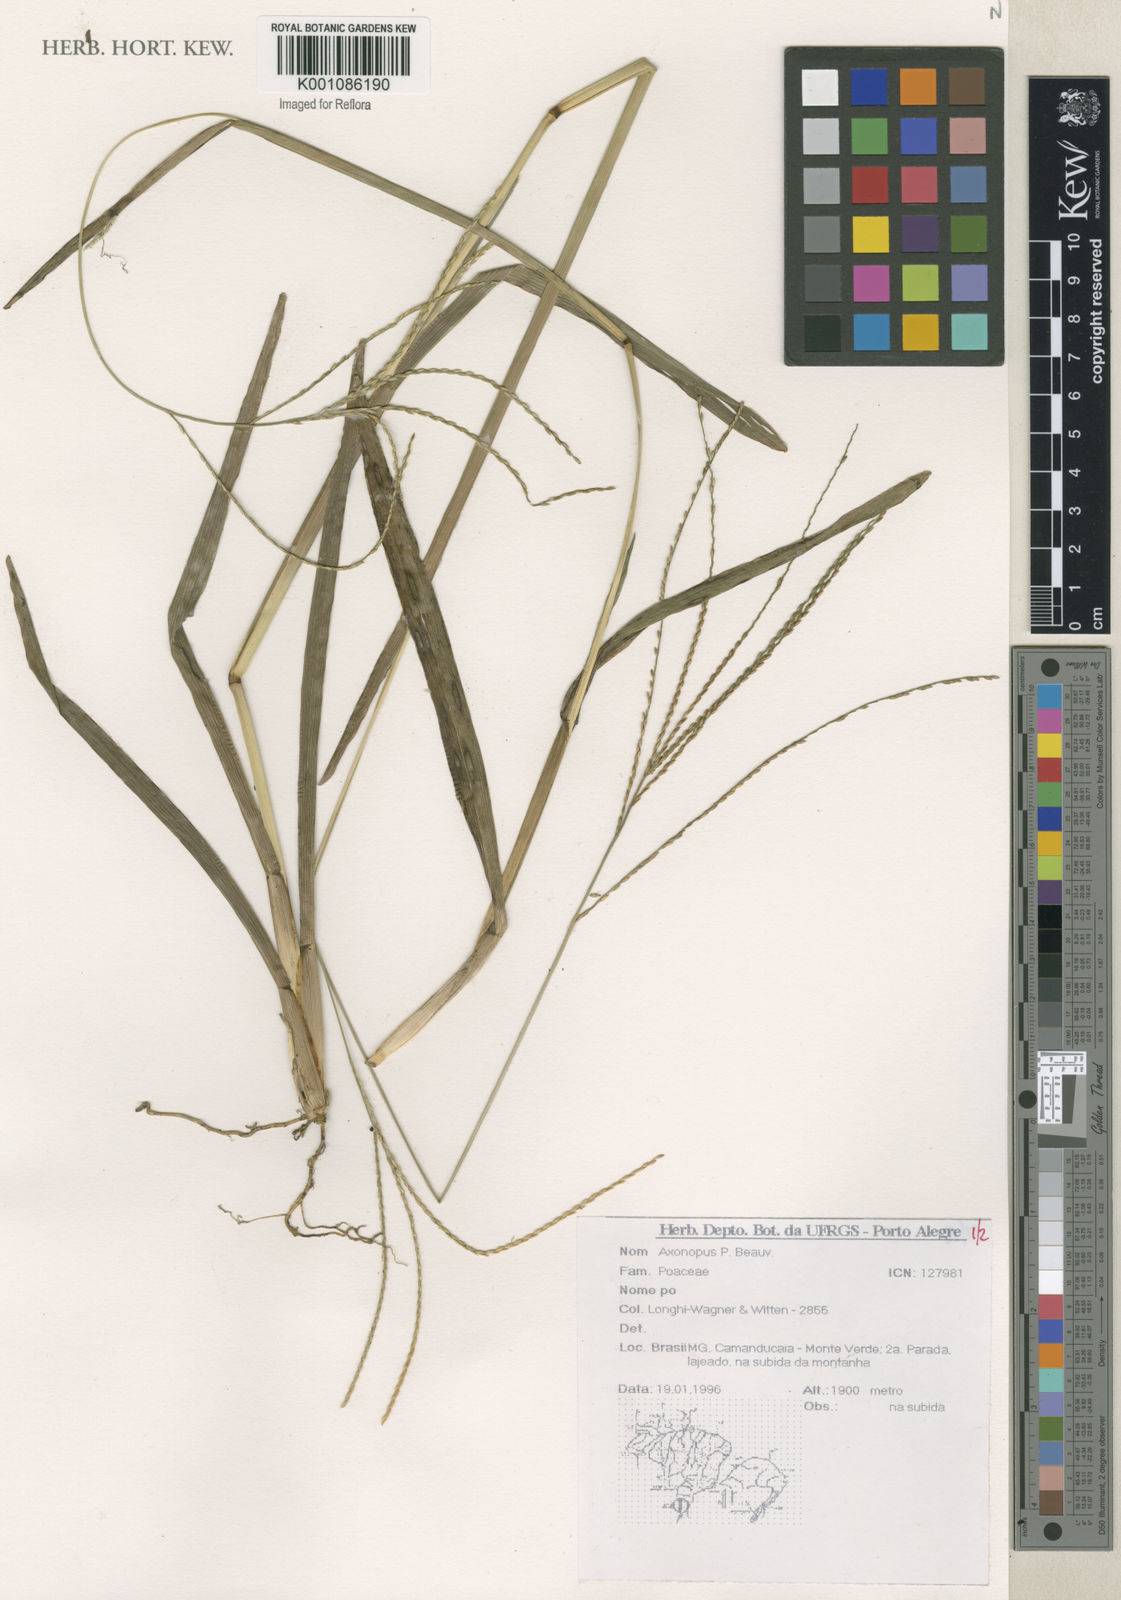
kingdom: Plantae
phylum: Tracheophyta
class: Liliopsida
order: Poales
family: Poaceae
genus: Axonopus
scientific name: Axonopus
